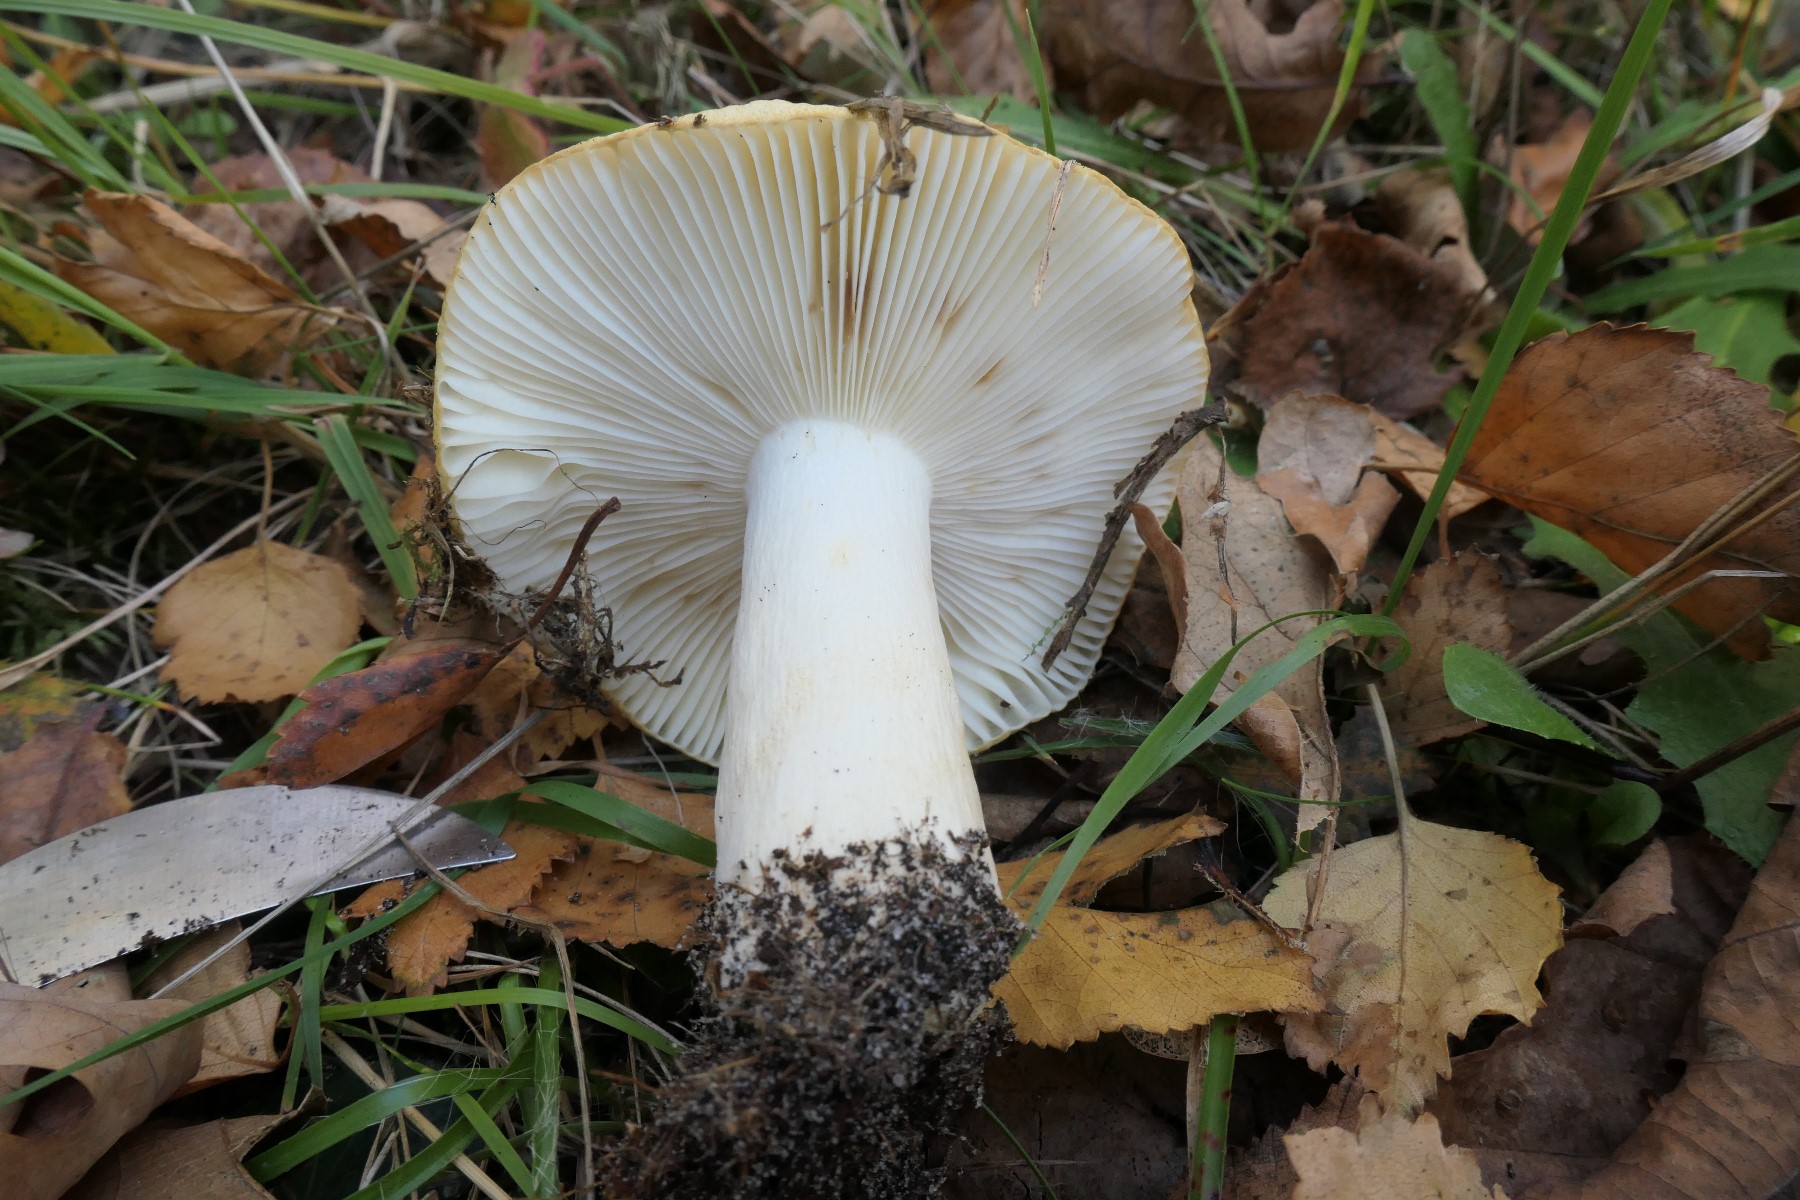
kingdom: Fungi
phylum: Basidiomycota
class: Agaricomycetes
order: Russulales
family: Russulaceae
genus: Russula
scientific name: Russula ochroleuca
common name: okkergul skørhat
